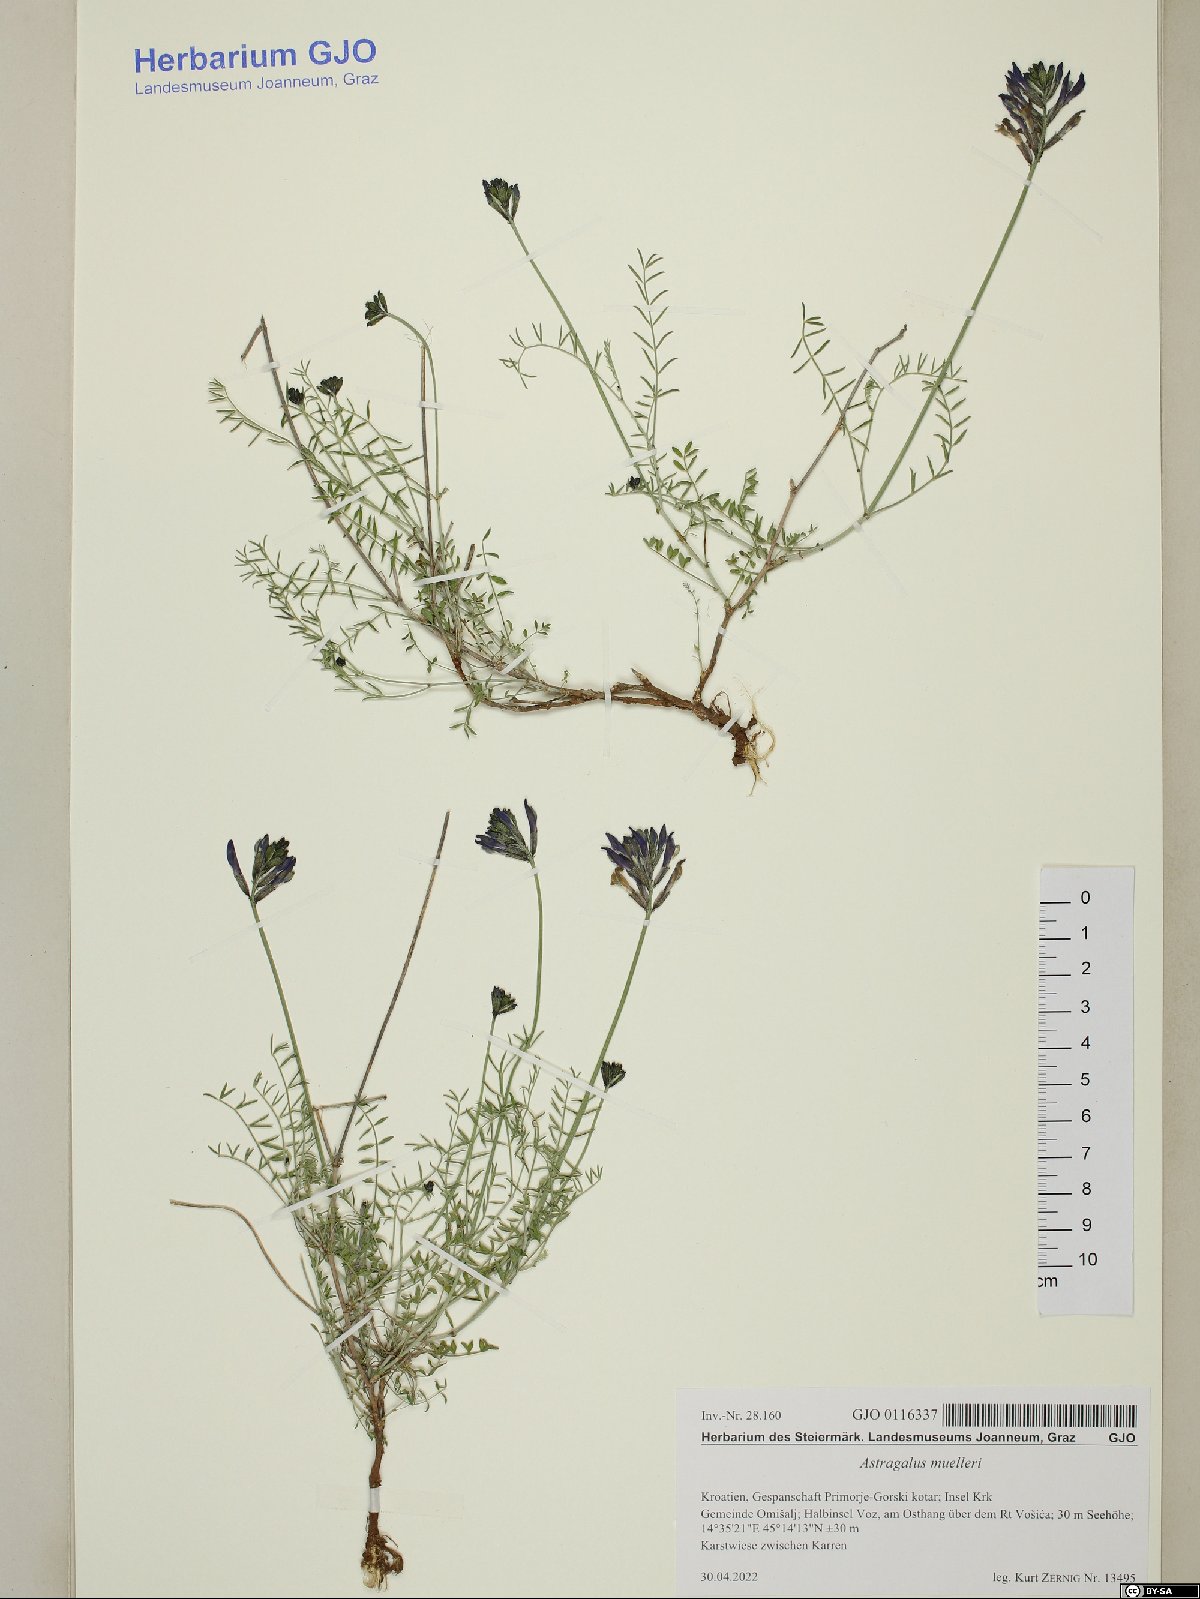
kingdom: Plantae
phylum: Tracheophyta
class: Magnoliopsida
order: Fabales
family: Fabaceae
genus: Astragalus
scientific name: Astragalus muelleri
